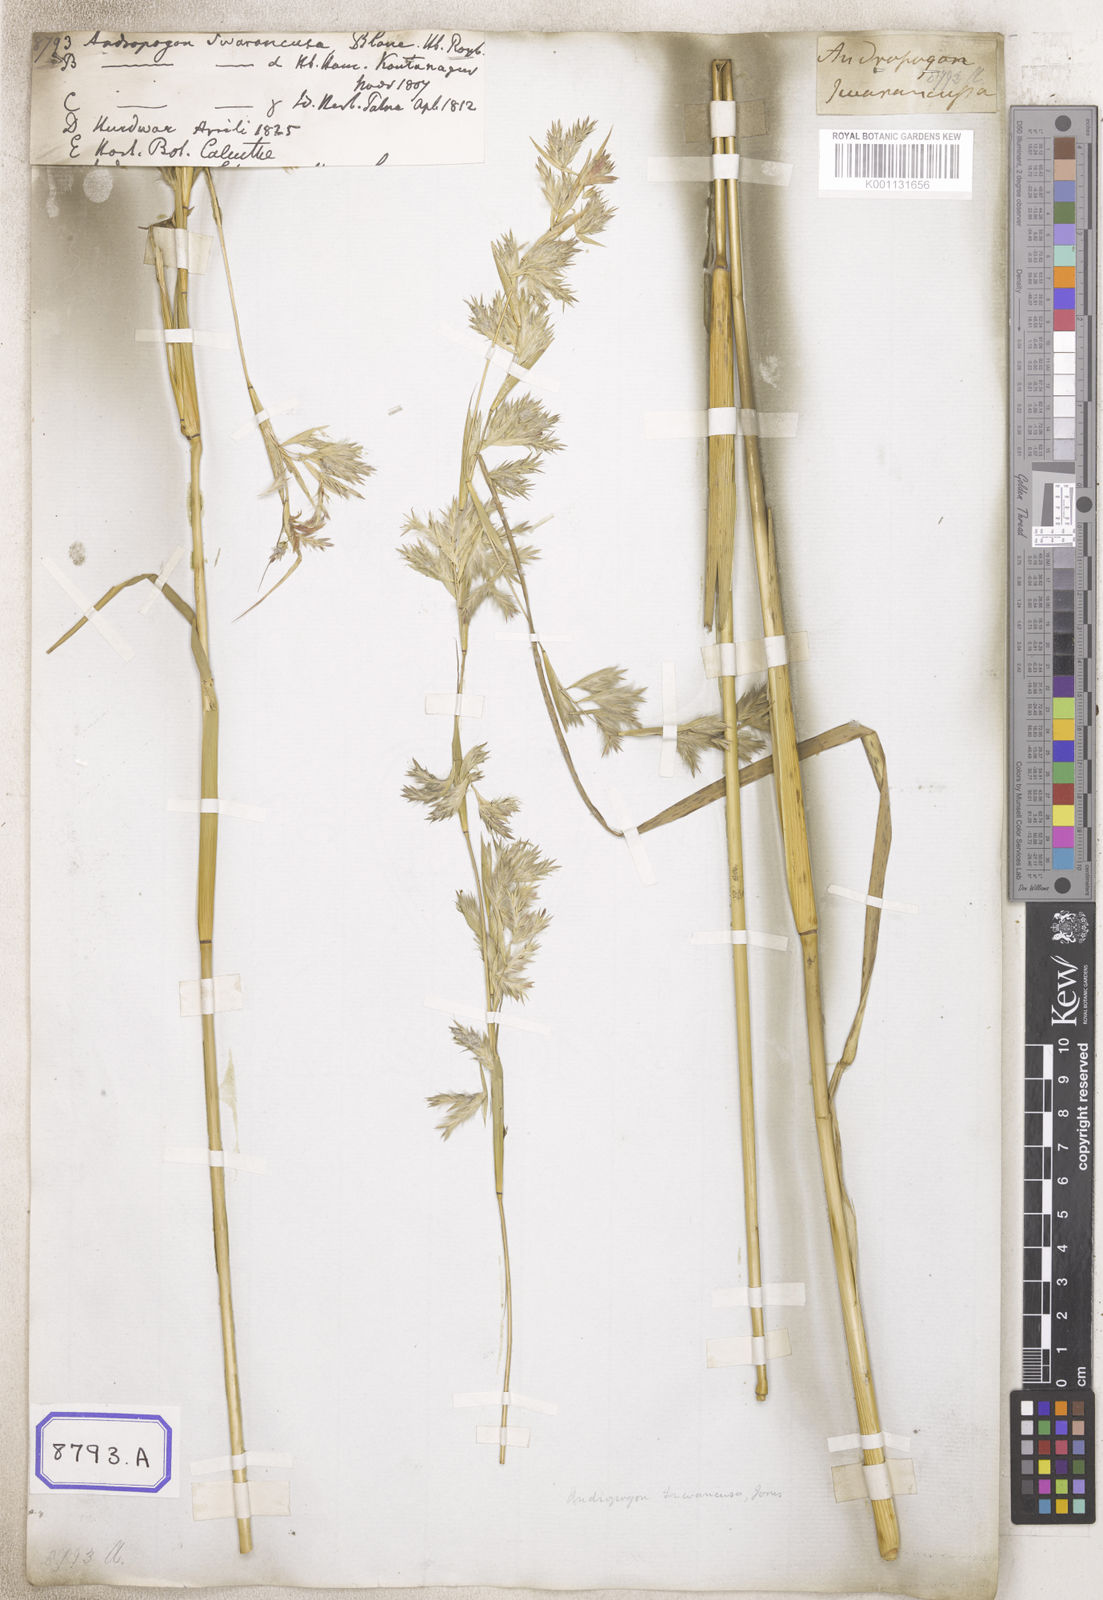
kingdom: Plantae
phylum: Tracheophyta
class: Liliopsida
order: Poales
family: Poaceae
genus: Cymbopogon
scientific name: Cymbopogon iwarancusa
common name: Iwarancusa grass
